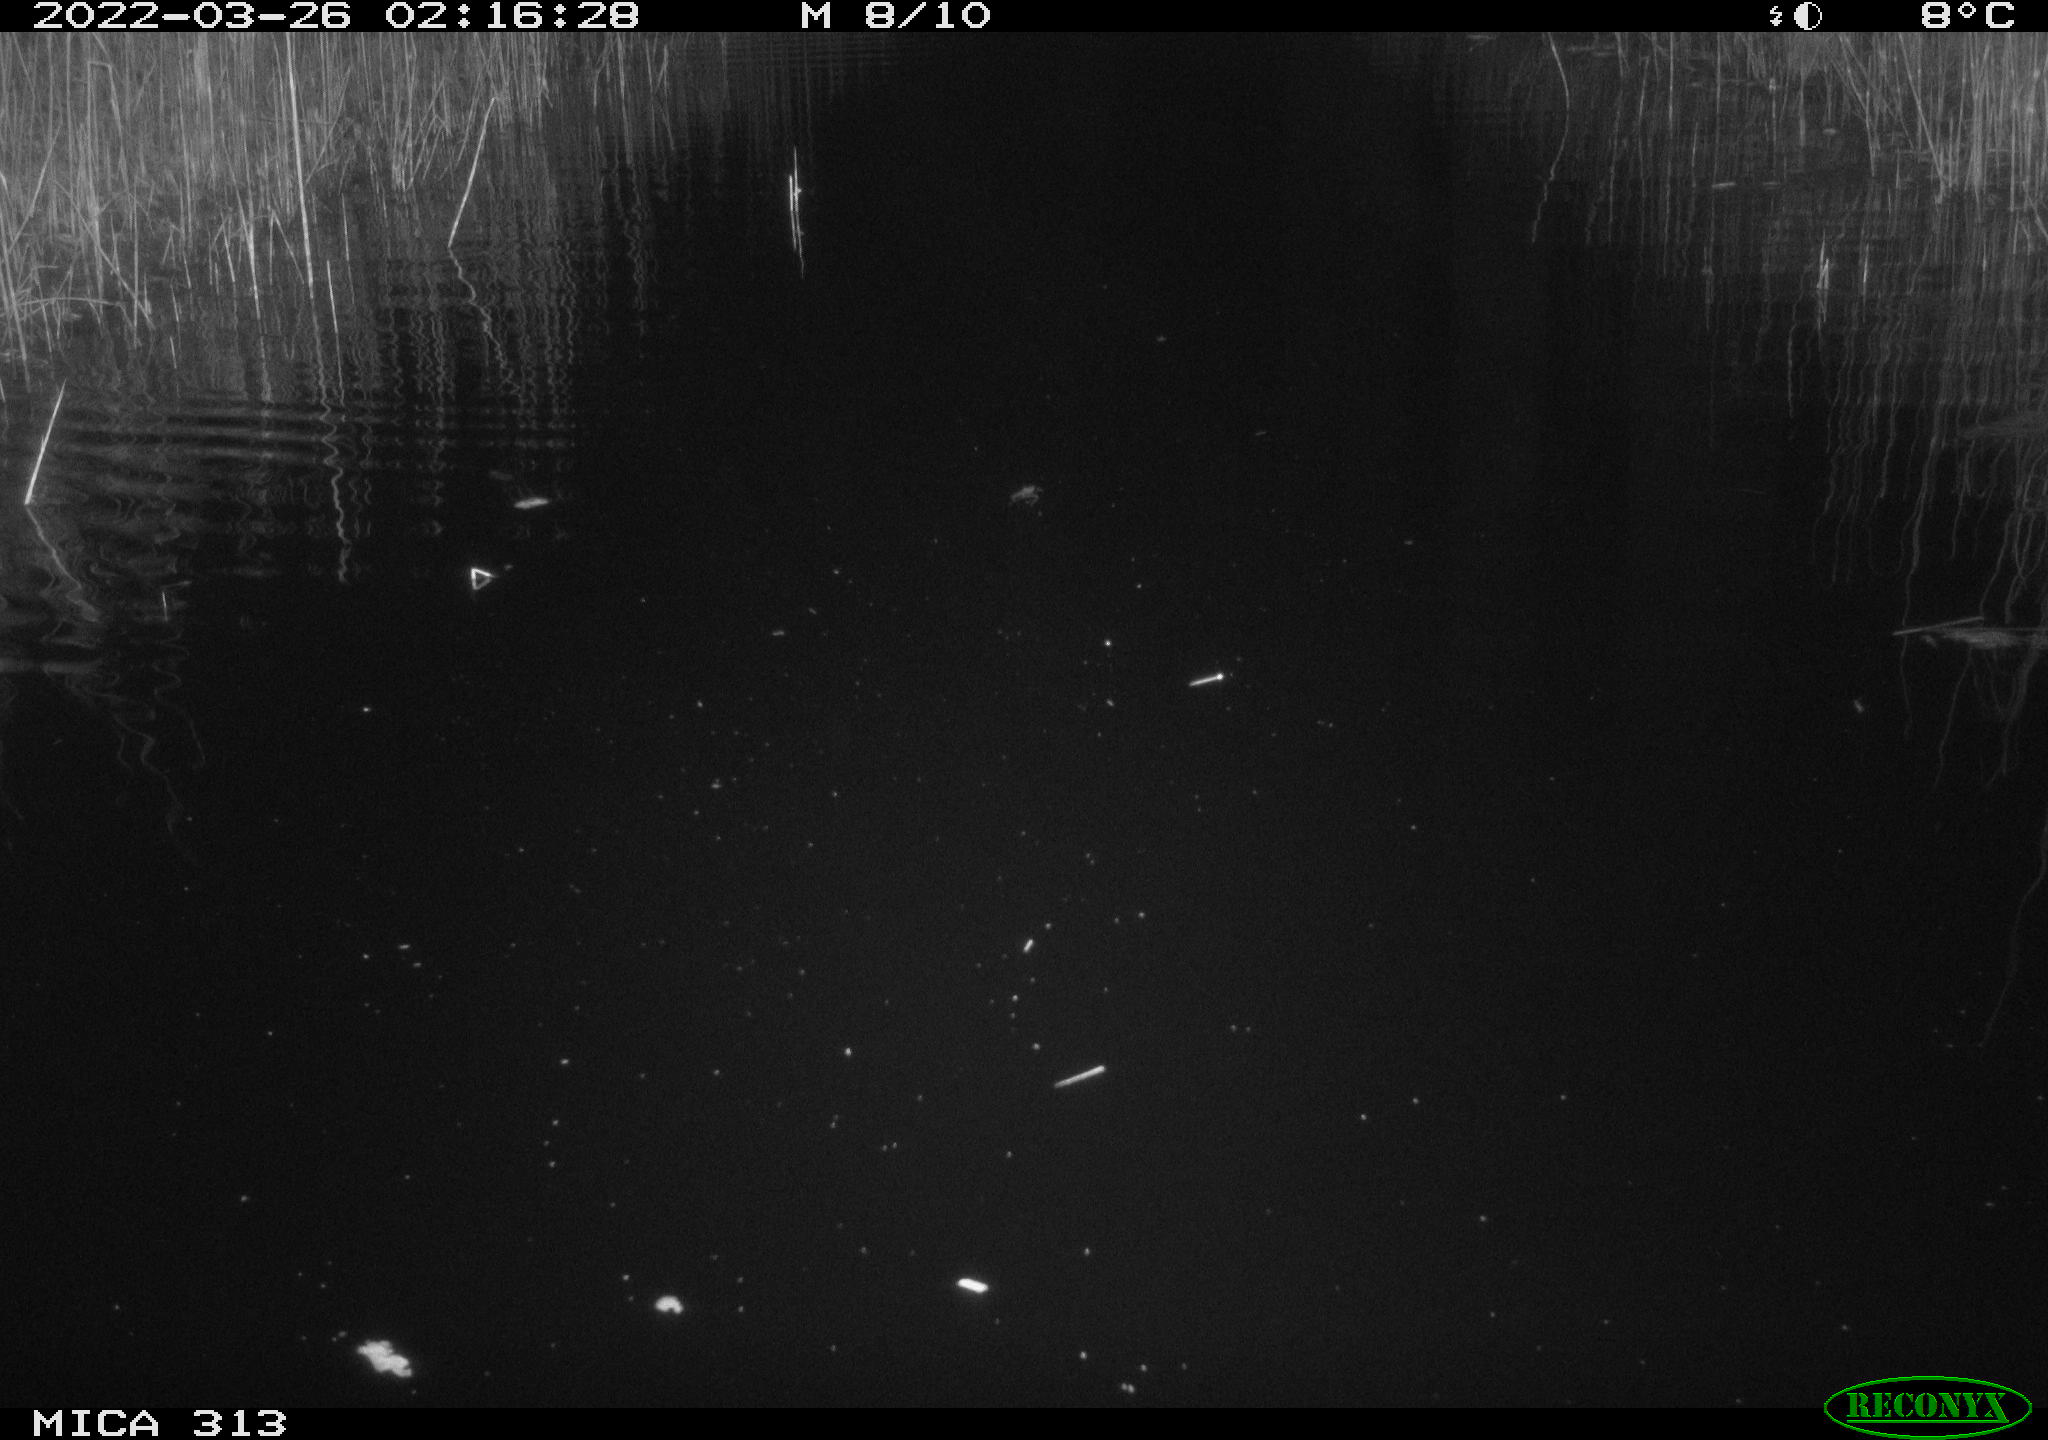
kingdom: Animalia
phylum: Chordata
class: Aves
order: Anseriformes
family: Anatidae
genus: Anas
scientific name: Anas platyrhynchos
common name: Mallard
